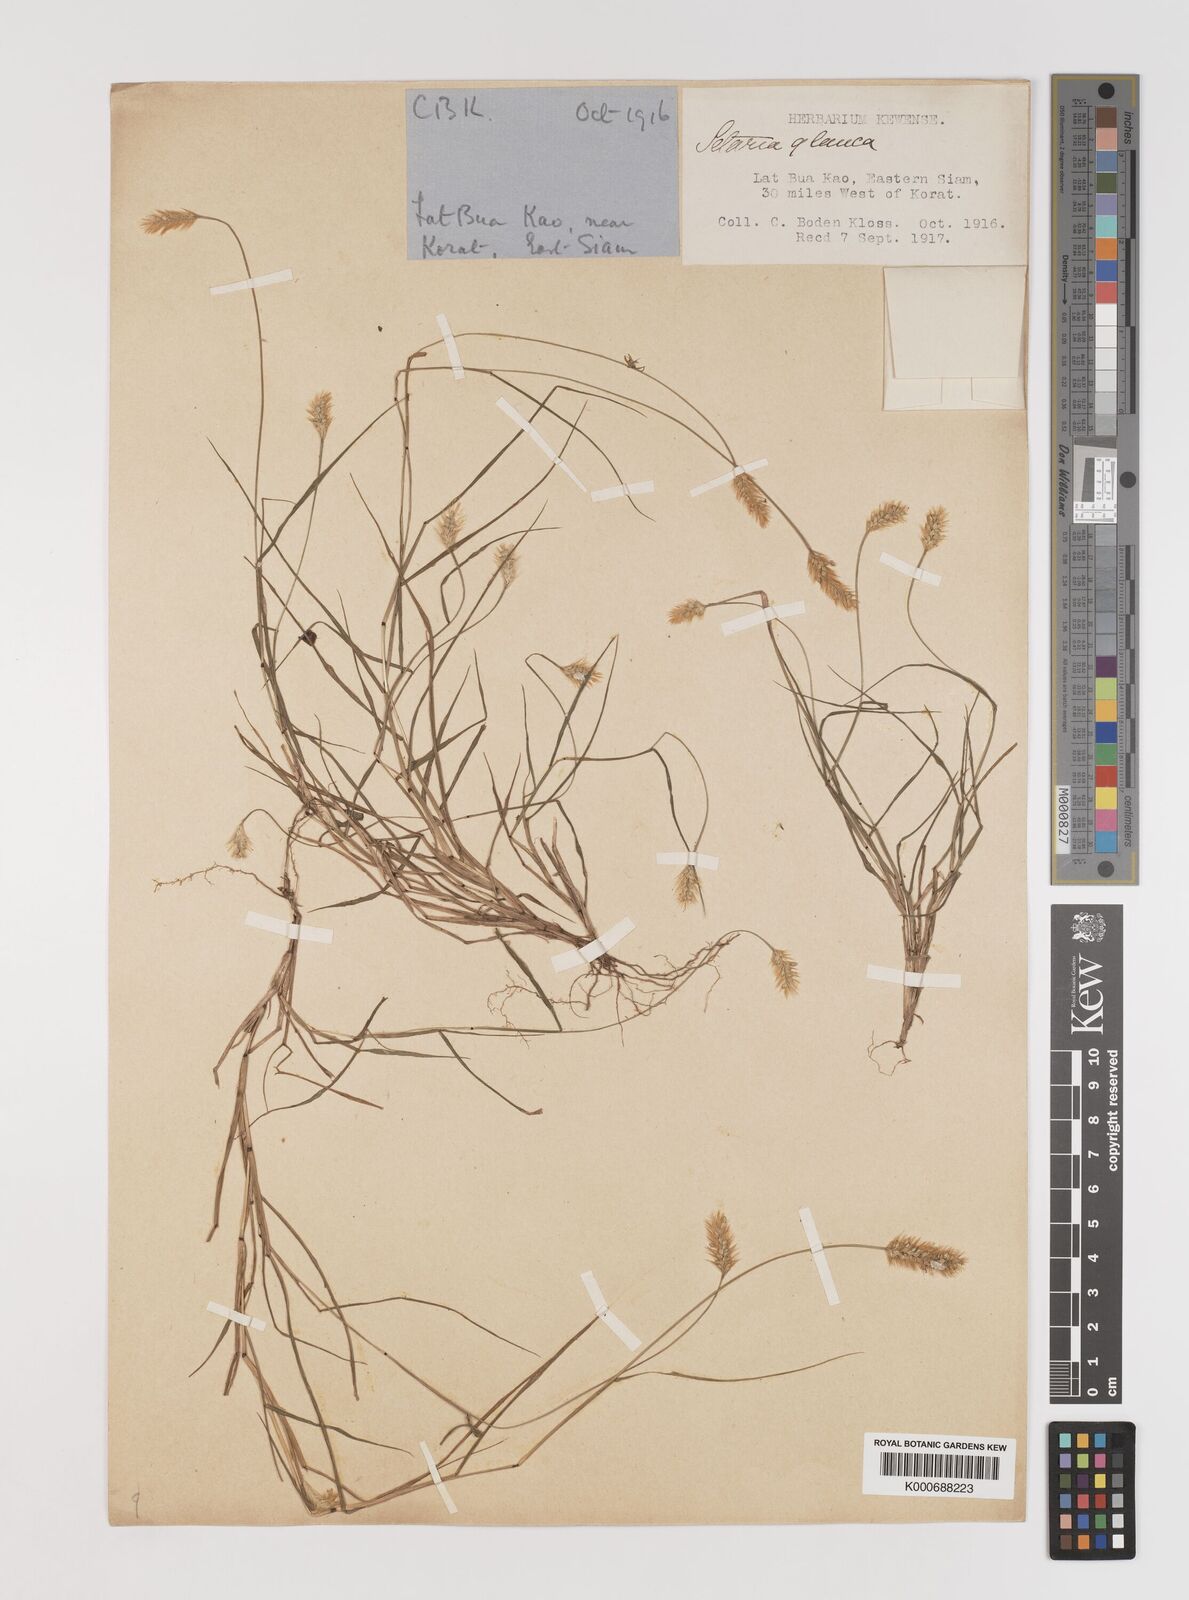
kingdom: Plantae
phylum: Tracheophyta
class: Liliopsida
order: Poales
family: Poaceae
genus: Setaria
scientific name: Setaria pumila
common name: Yellow bristle-grass
